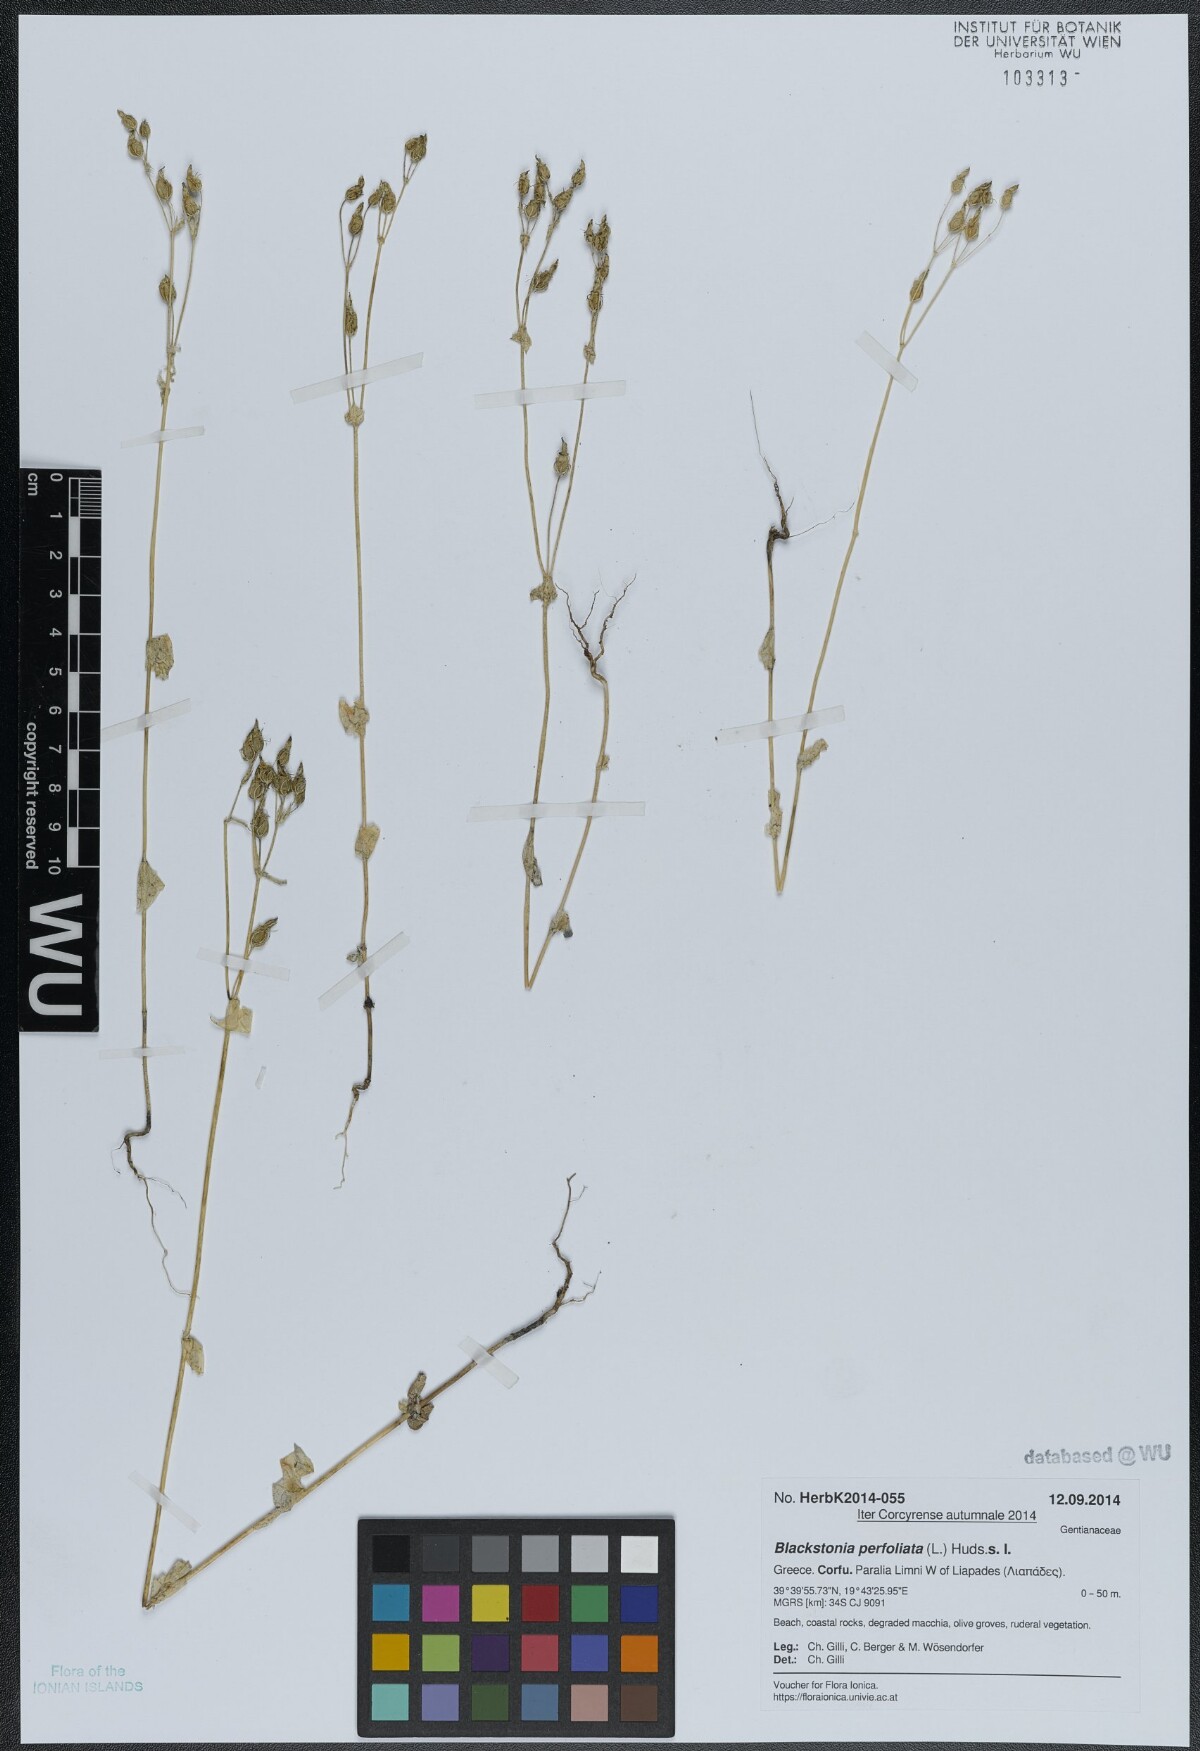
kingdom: Plantae
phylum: Tracheophyta
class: Magnoliopsida
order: Gentianales
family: Gentianaceae
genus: Blackstonia
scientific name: Blackstonia perfoliata
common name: Yellow-wort
